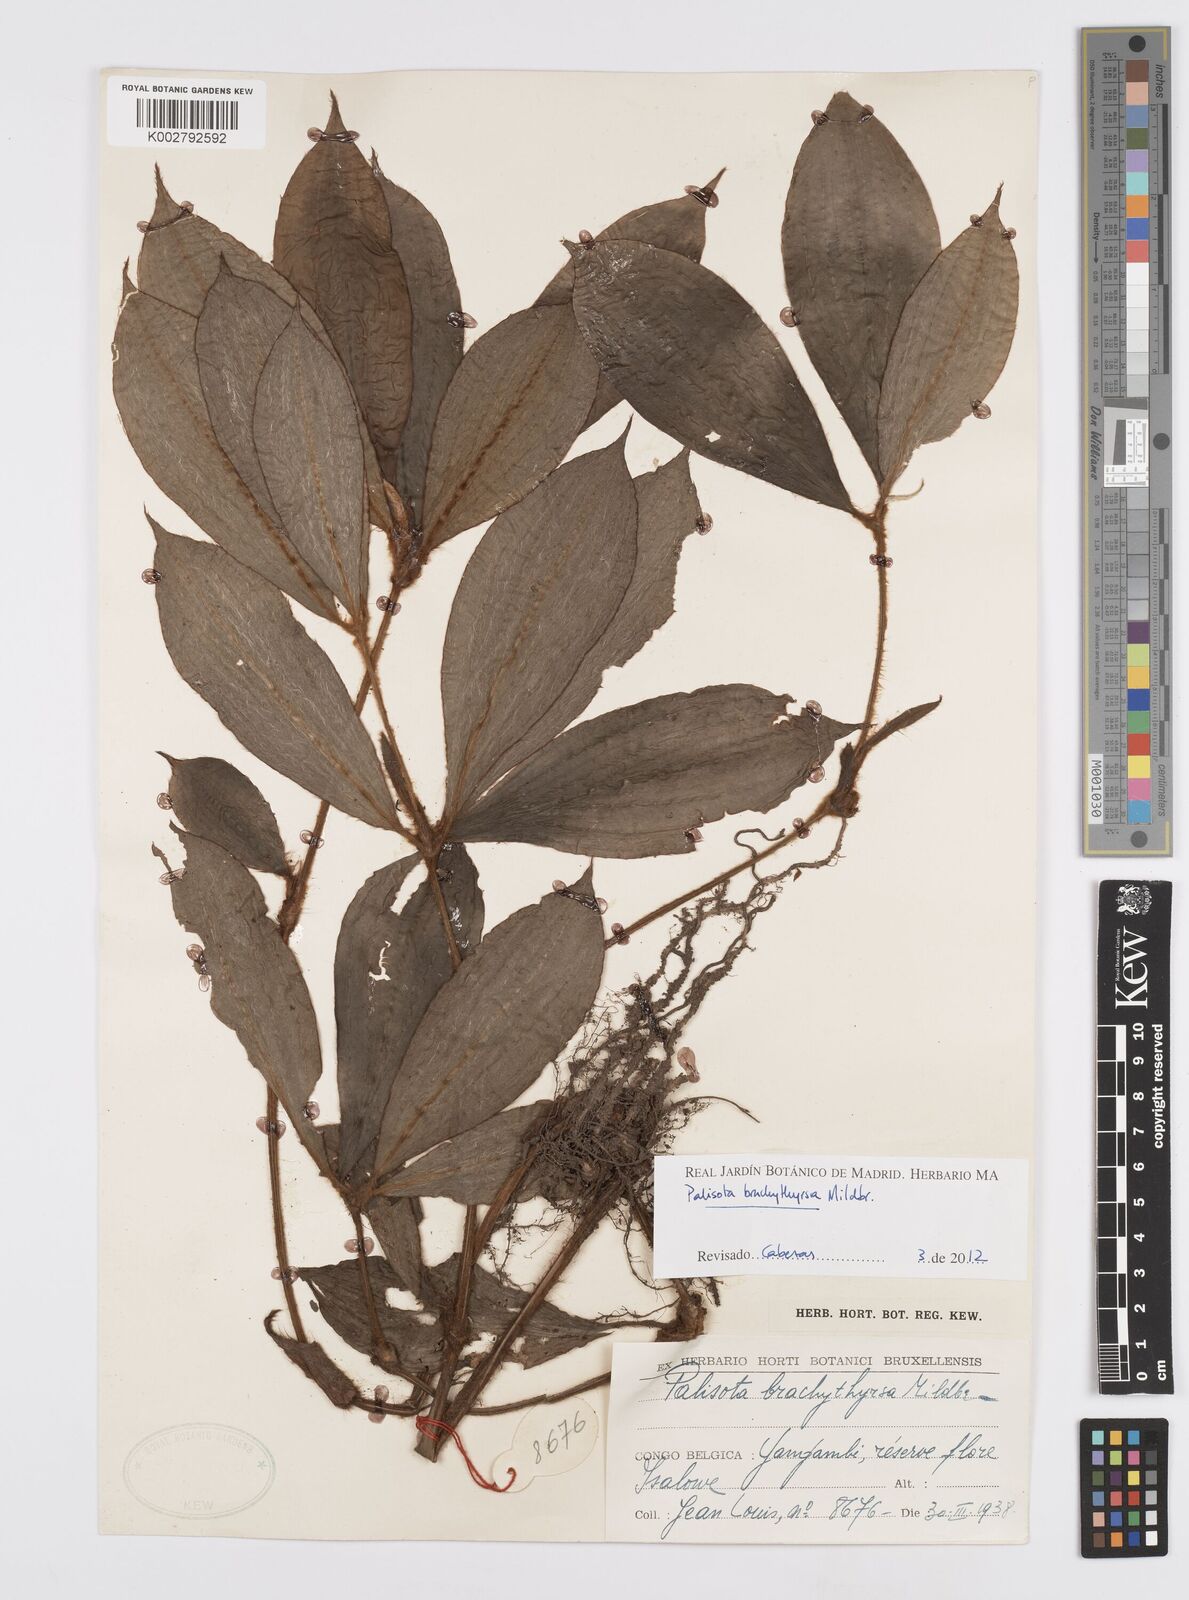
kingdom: Plantae
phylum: Tracheophyta
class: Liliopsida
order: Commelinales
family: Commelinaceae
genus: Palisota
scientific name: Palisota brachythyrsa
